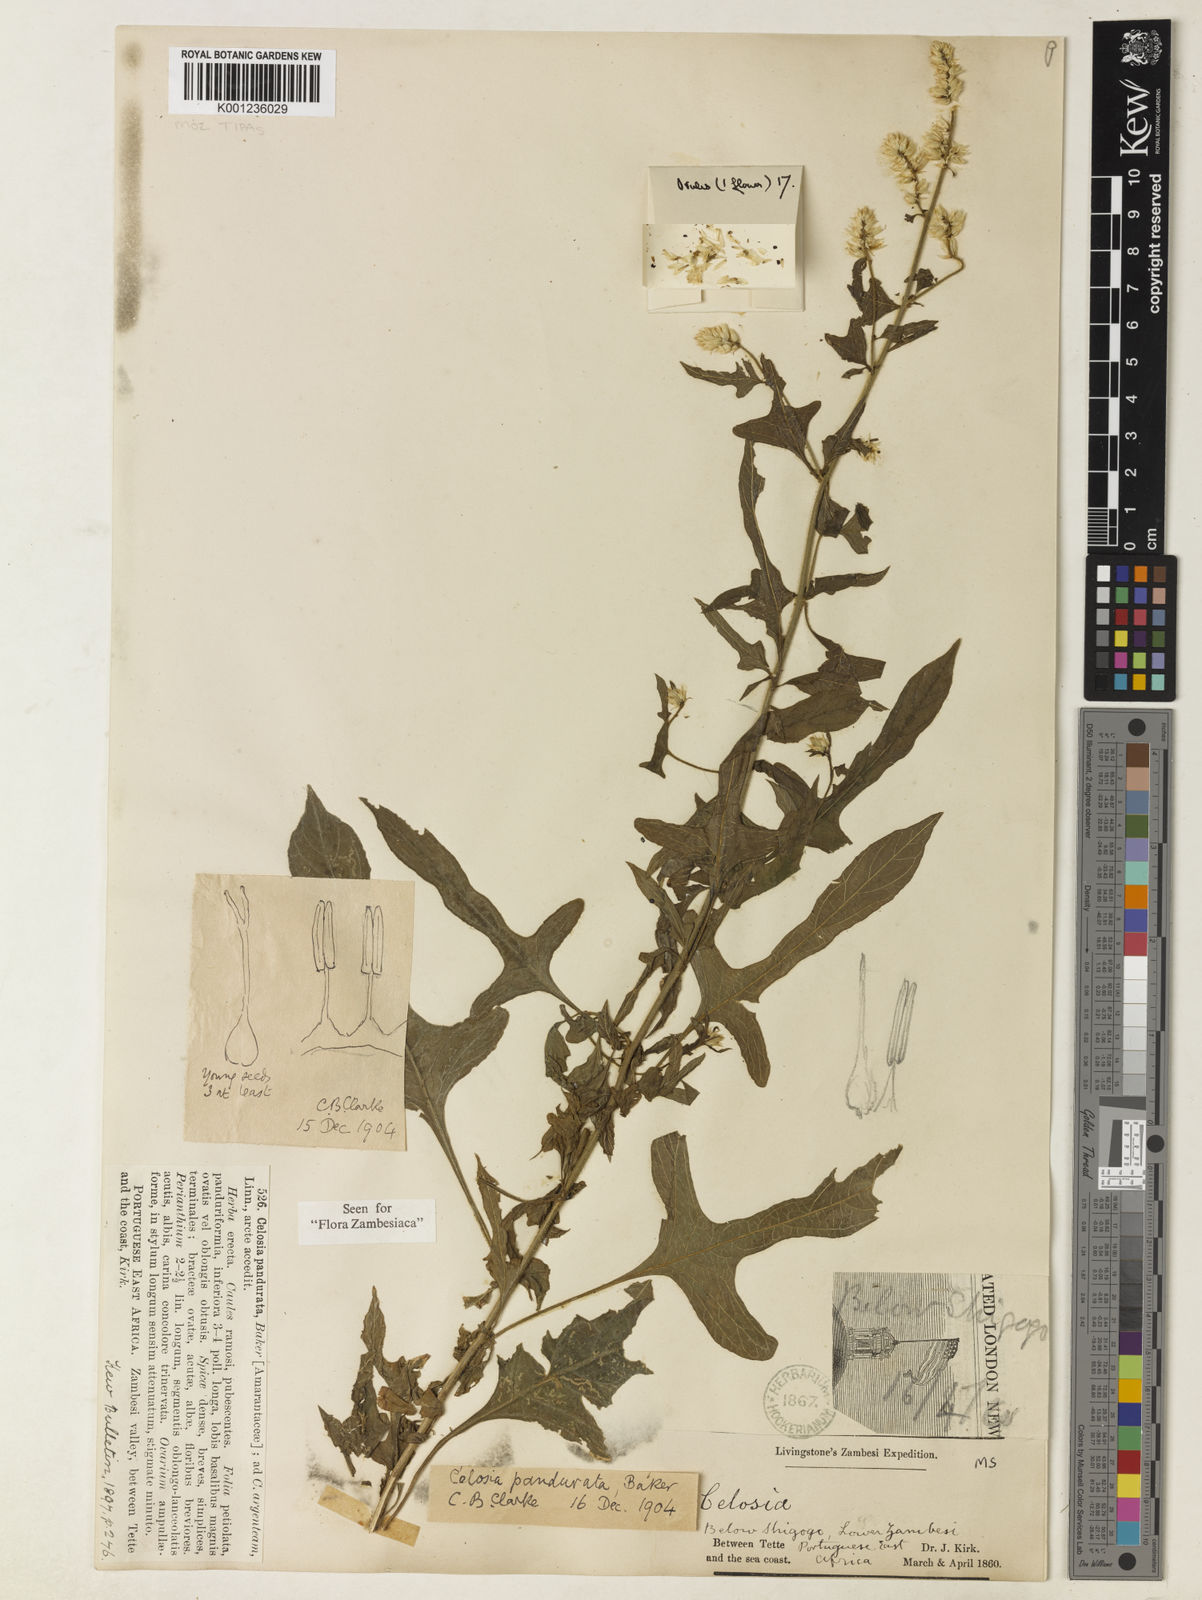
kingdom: Plantae
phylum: Tracheophyta
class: Magnoliopsida
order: Caryophyllales
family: Amaranthaceae
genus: Celosia
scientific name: Celosia pandurata
